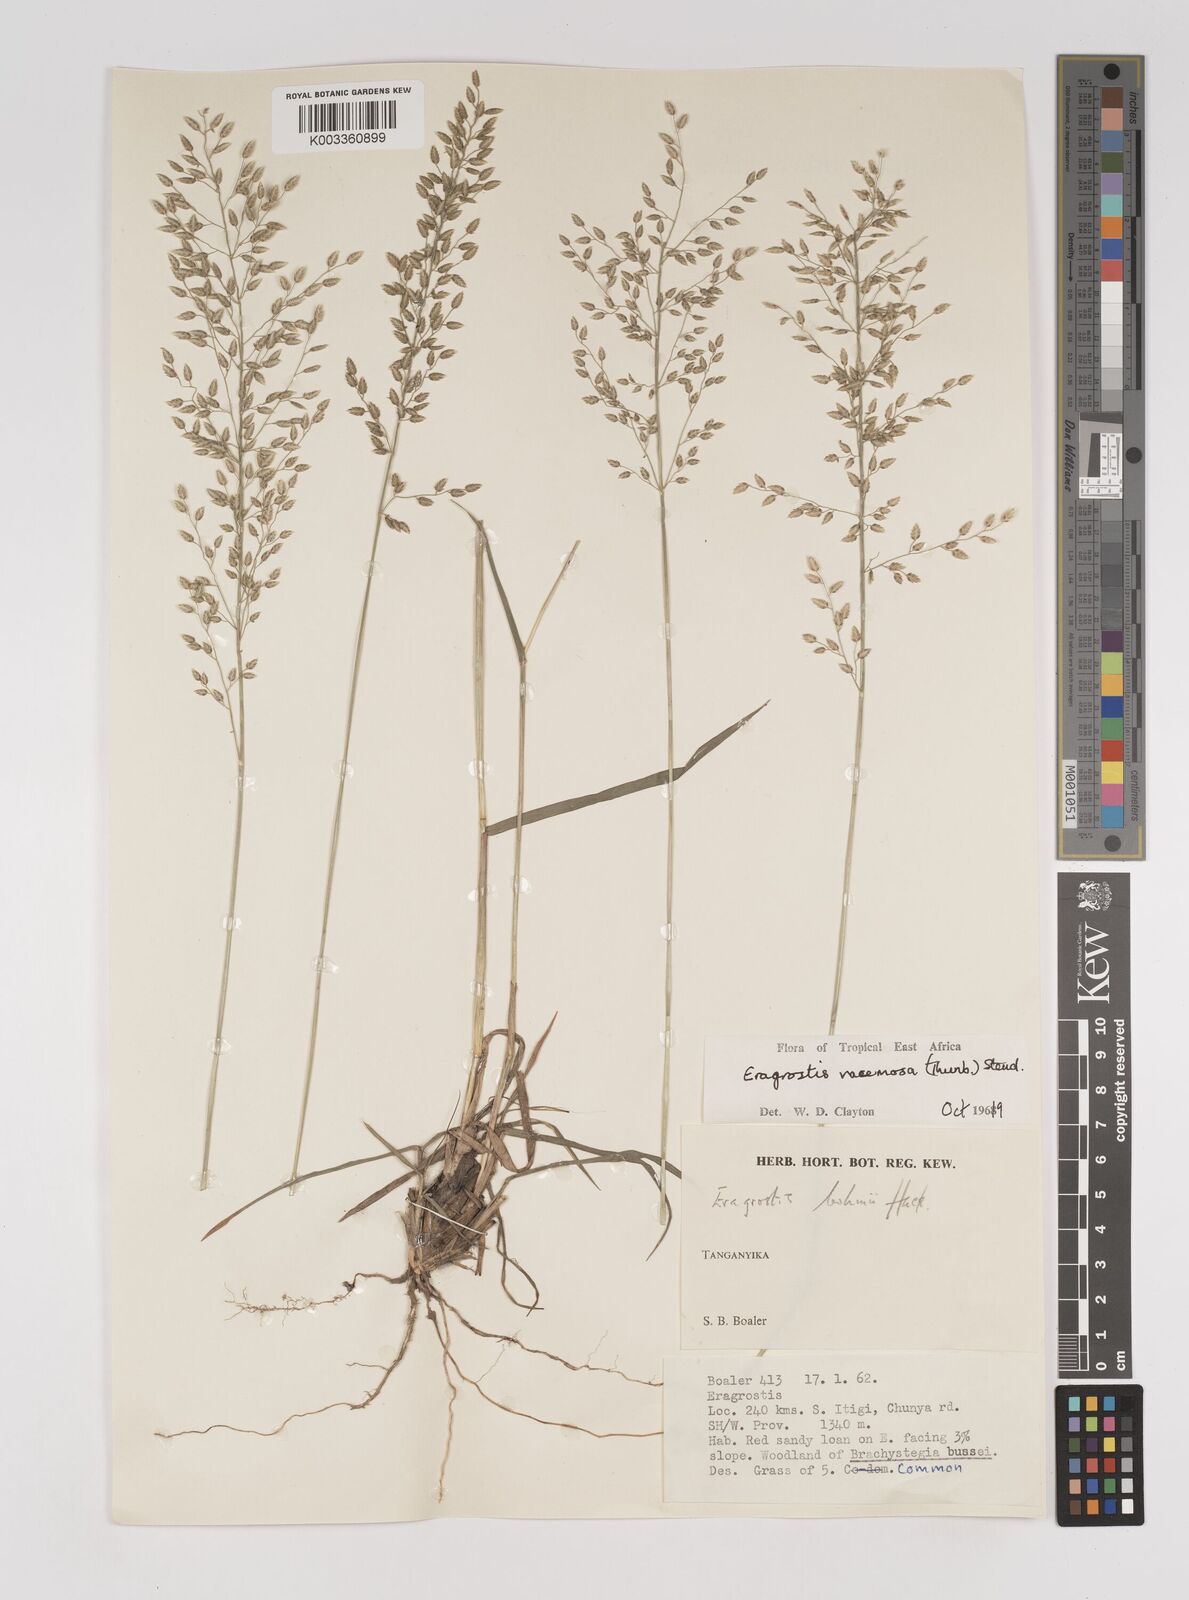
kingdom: Plantae
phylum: Tracheophyta
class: Liliopsida
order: Poales
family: Poaceae
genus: Eragrostis
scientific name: Eragrostis racemosa
